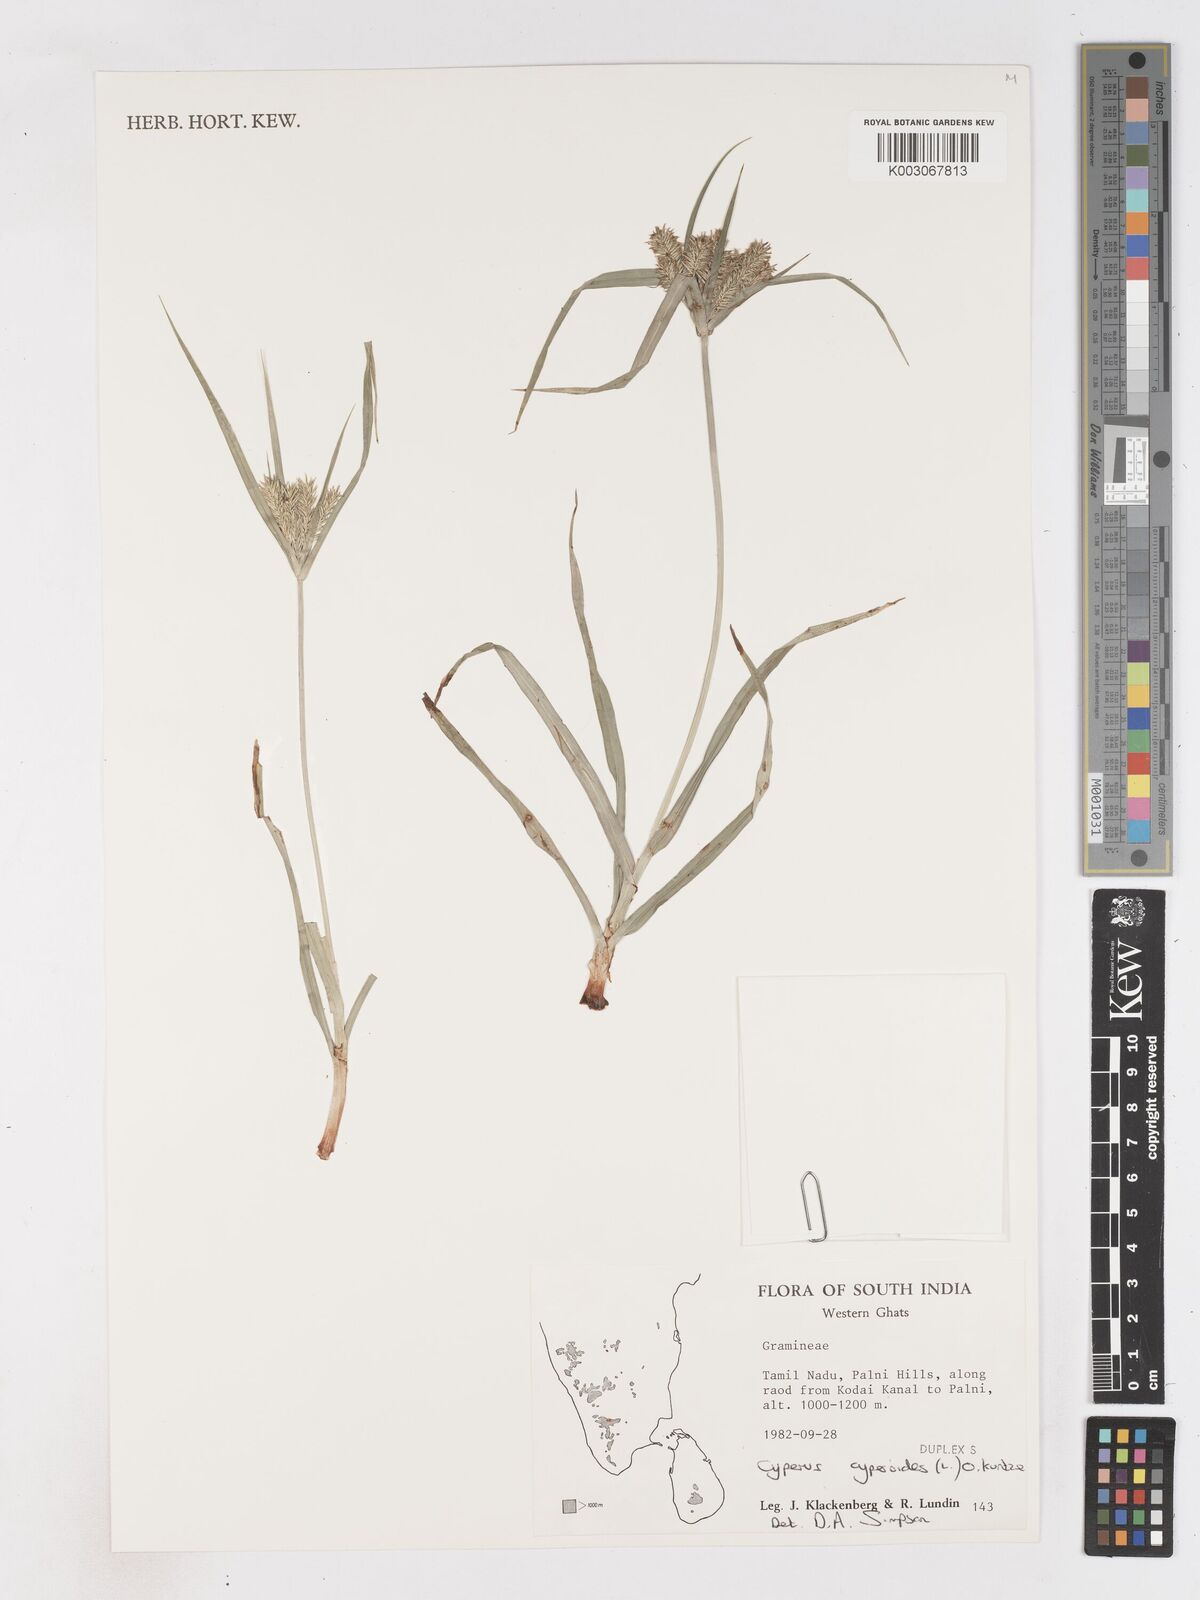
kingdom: Plantae
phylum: Tracheophyta
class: Liliopsida
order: Poales
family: Cyperaceae
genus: Cyperus
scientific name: Cyperus cyperoides
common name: Pacific island flat sedge
